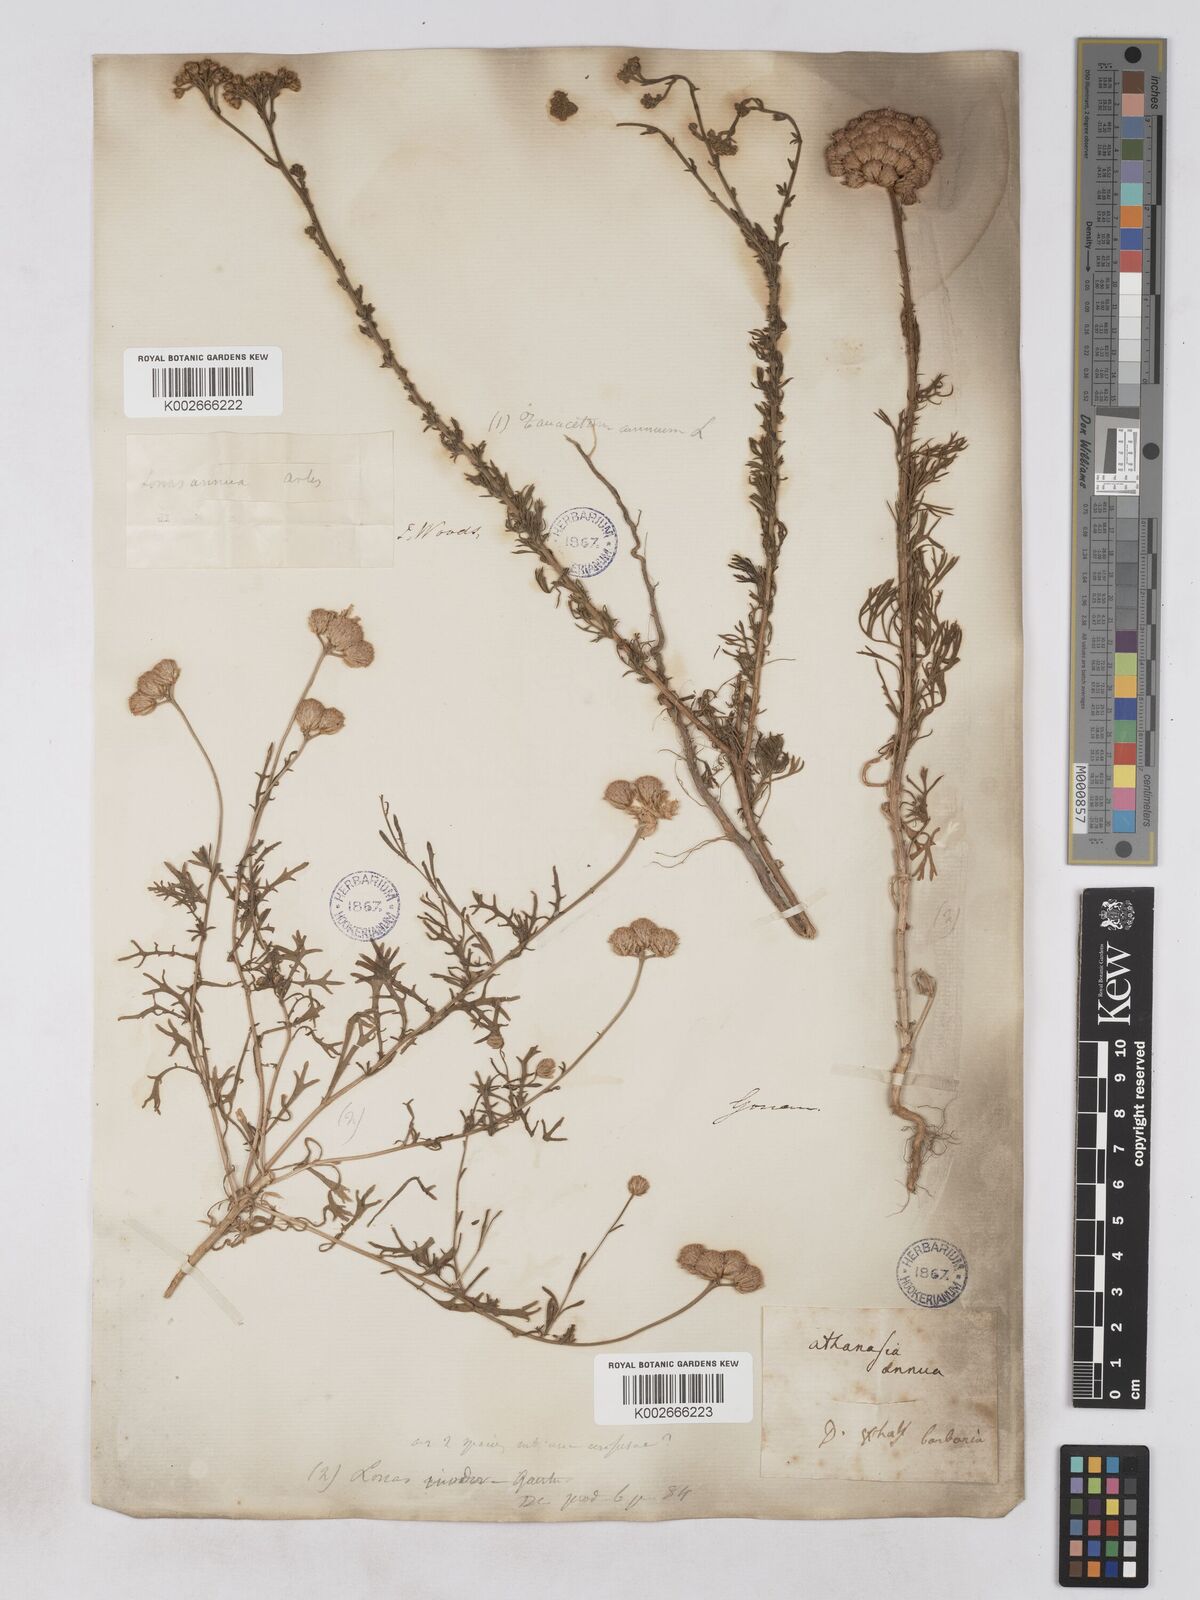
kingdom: Plantae
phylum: Tracheophyta
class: Magnoliopsida
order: Asterales
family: Asteraceae
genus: Lonas
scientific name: Lonas
